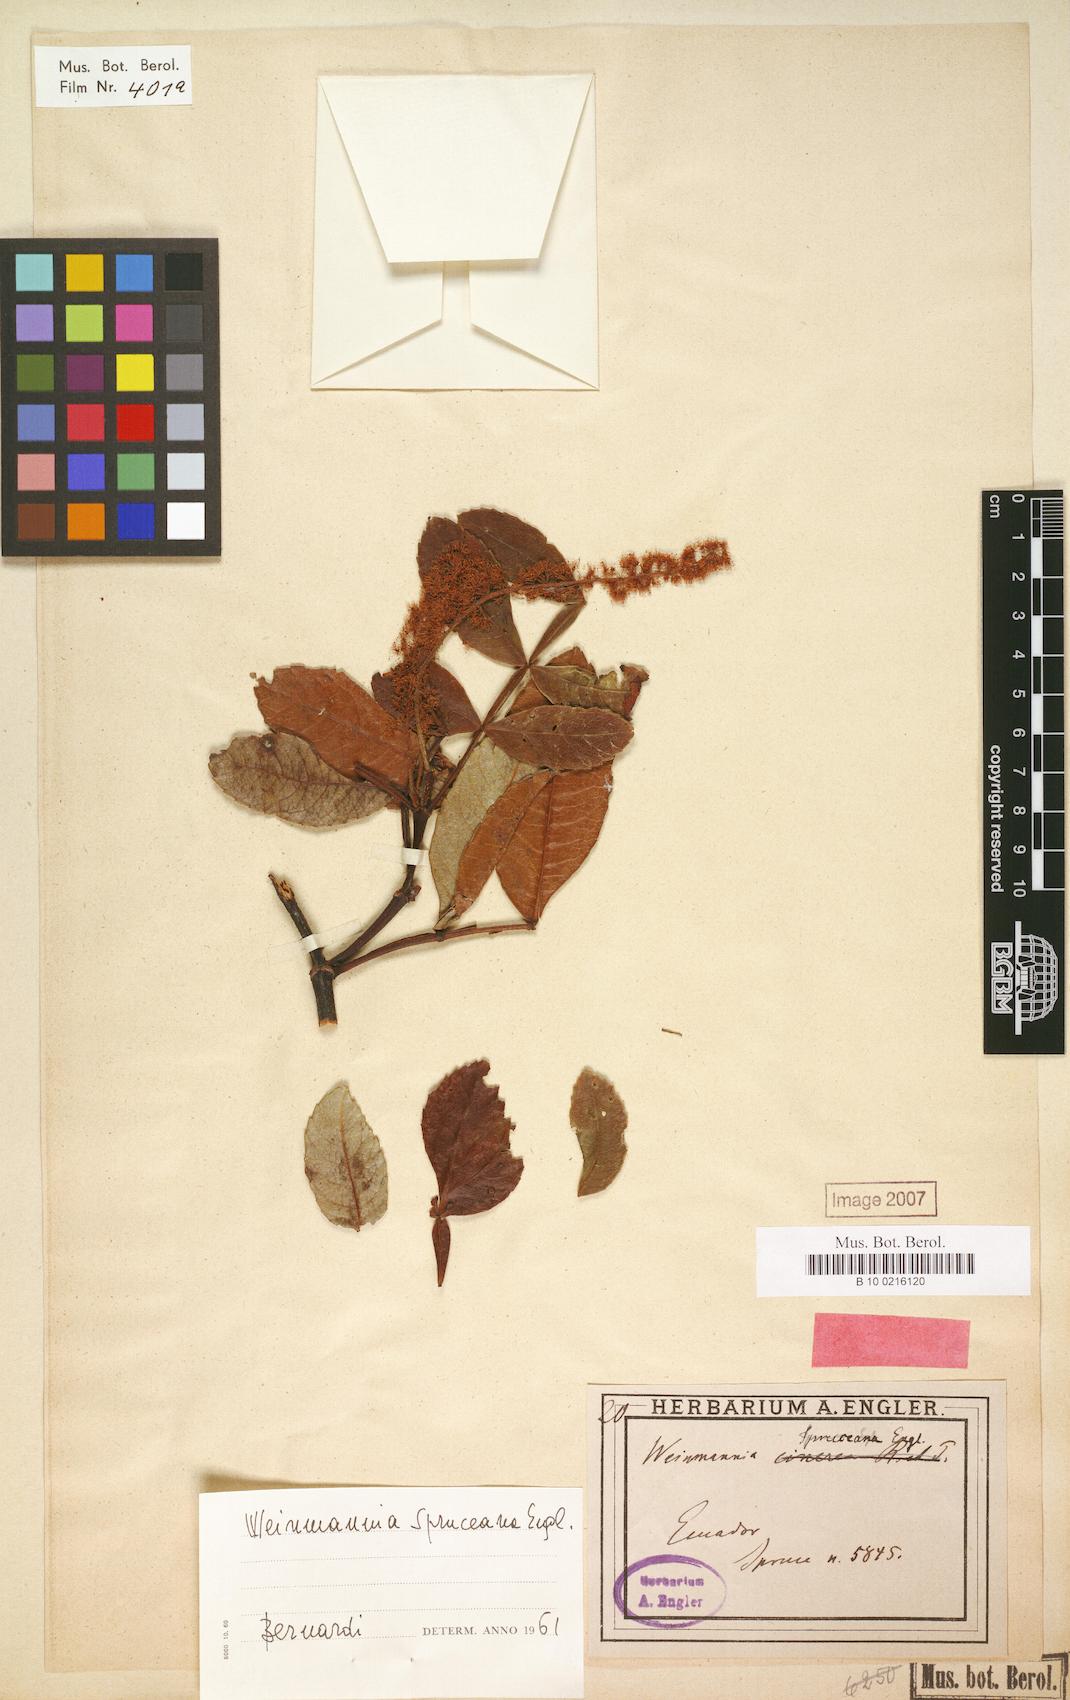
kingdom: Plantae
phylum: Tracheophyta
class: Magnoliopsida
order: Oxalidales
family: Cunoniaceae
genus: Weinmannia
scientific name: Weinmannia spruceana
